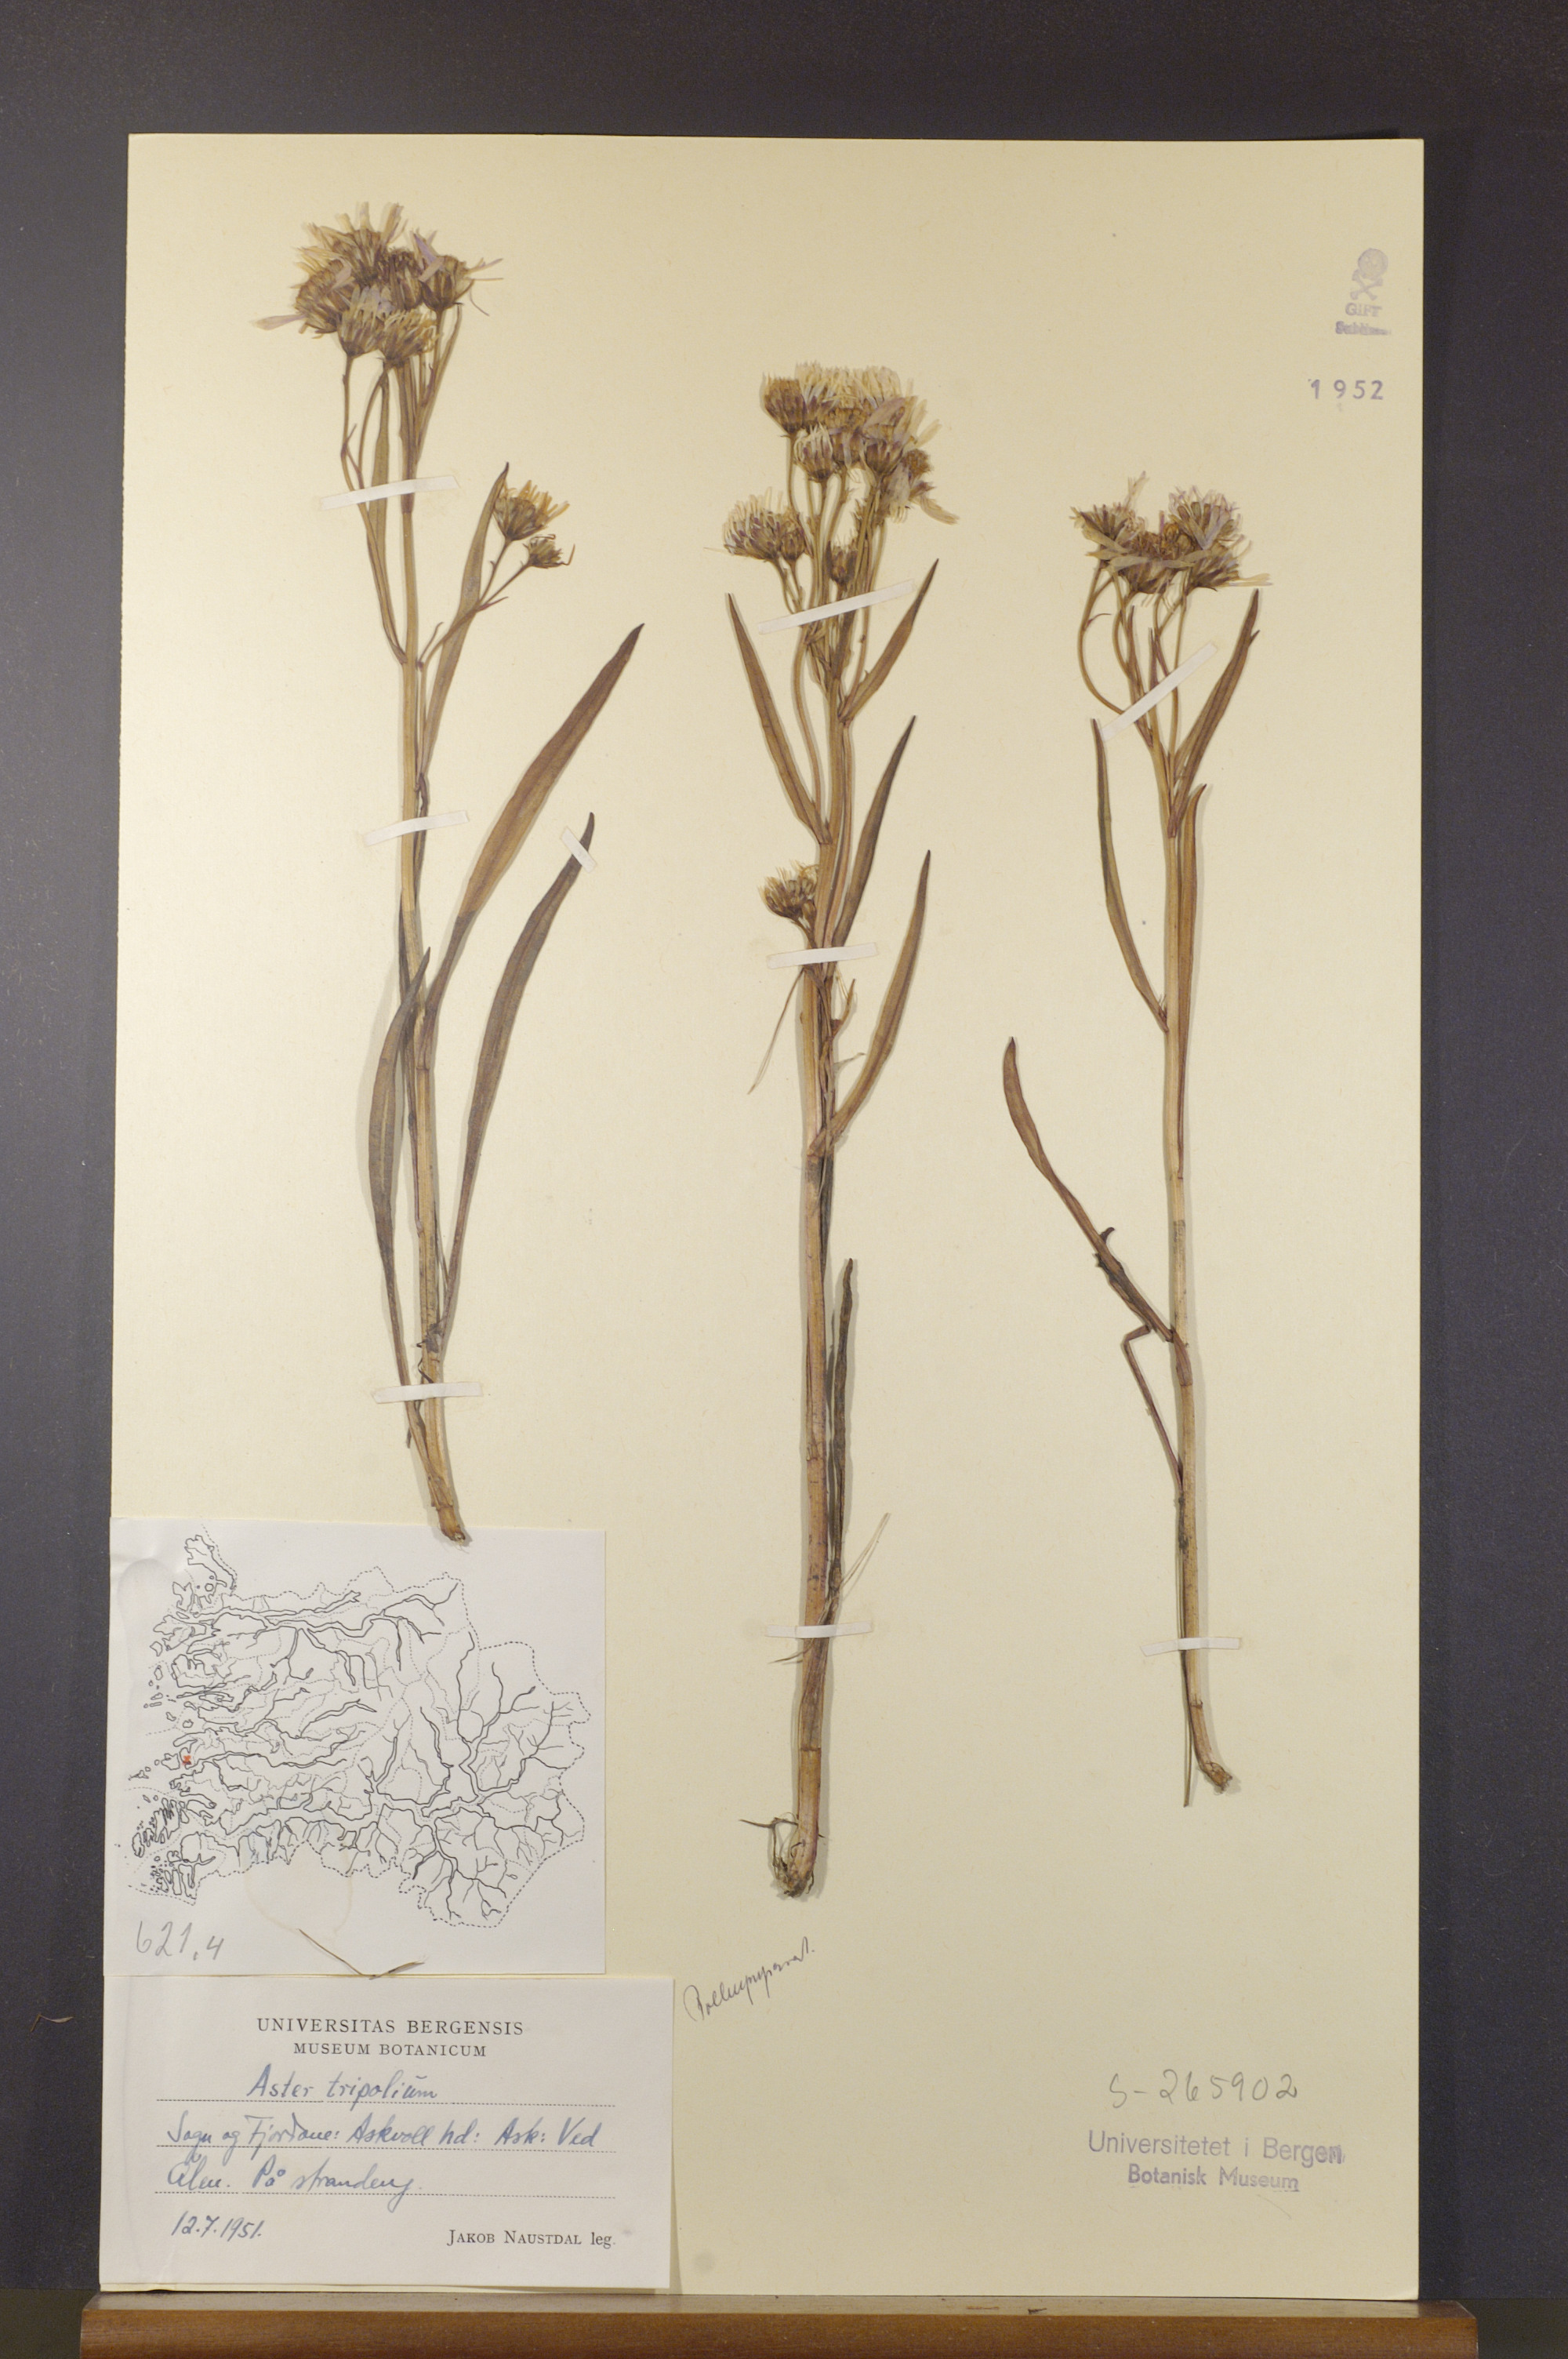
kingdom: Plantae
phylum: Tracheophyta
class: Magnoliopsida
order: Asterales
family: Asteraceae
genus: Tripolium
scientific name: Tripolium pannonicum
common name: Sea aster
